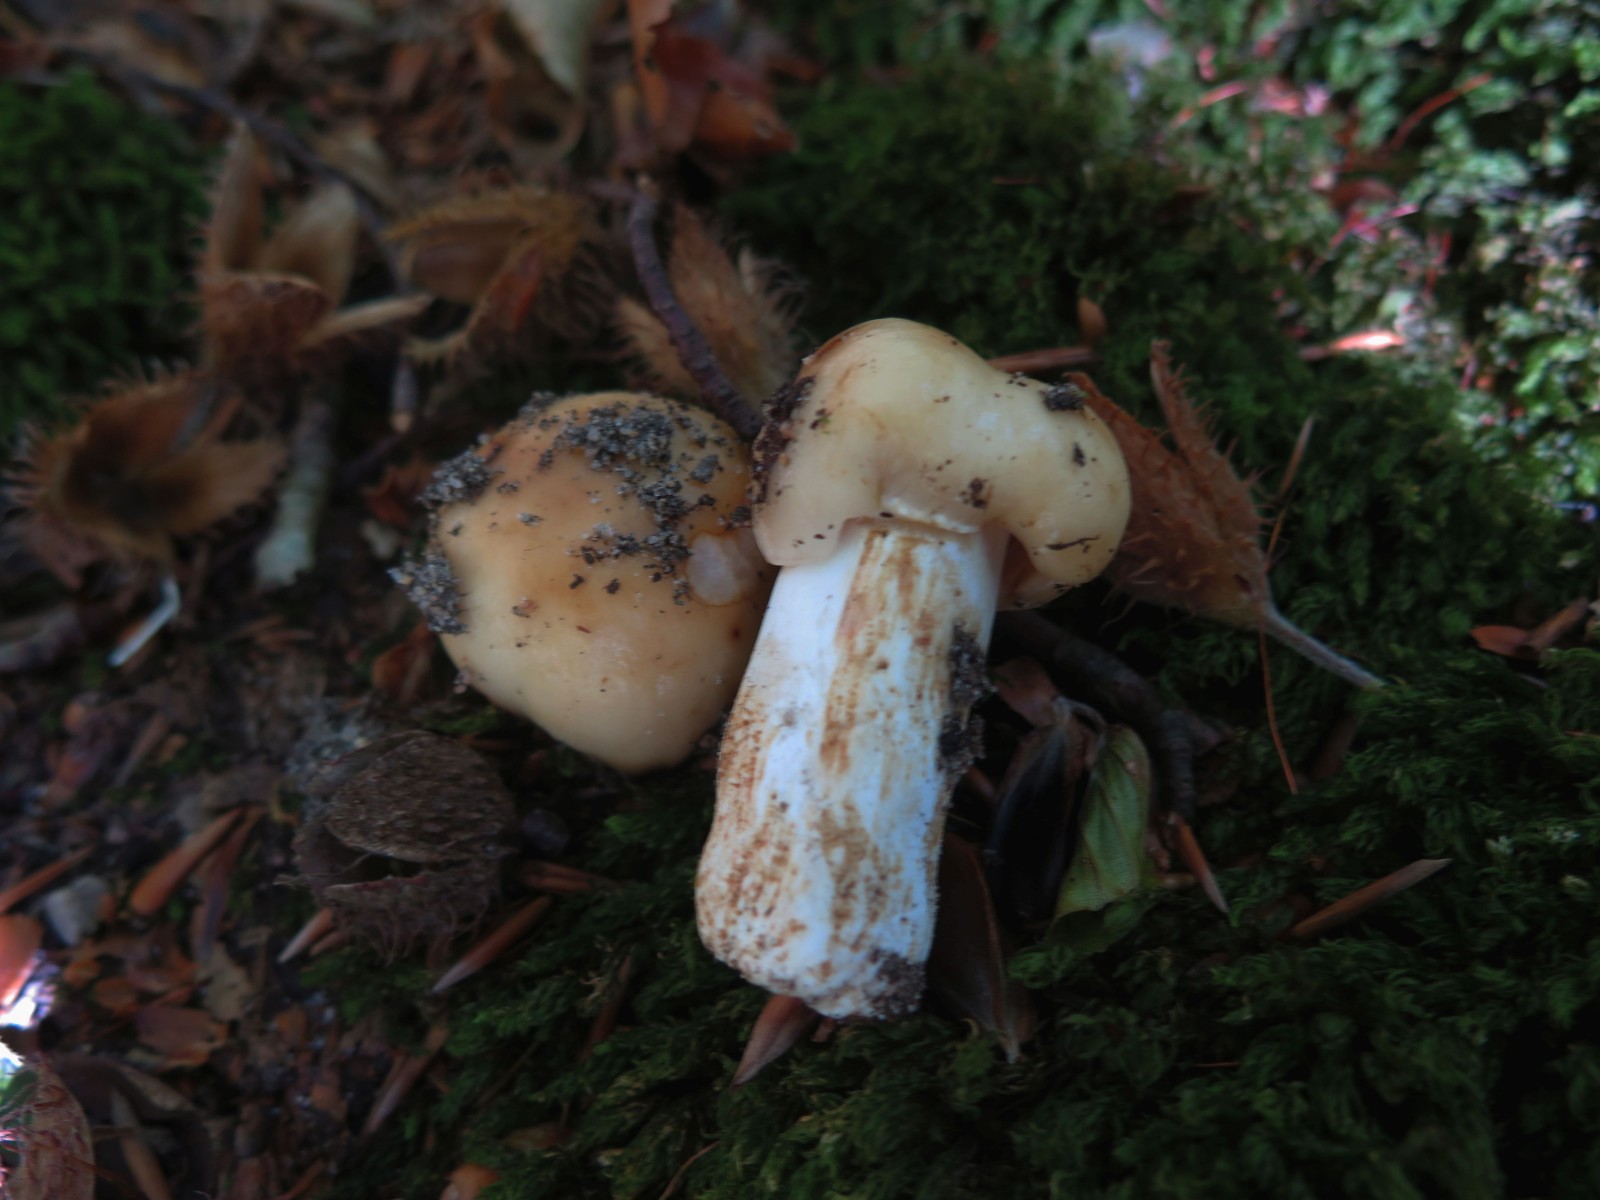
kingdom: Fungi
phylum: Basidiomycota
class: Agaricomycetes
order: Russulales
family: Russulaceae
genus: Russula
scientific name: Russula
